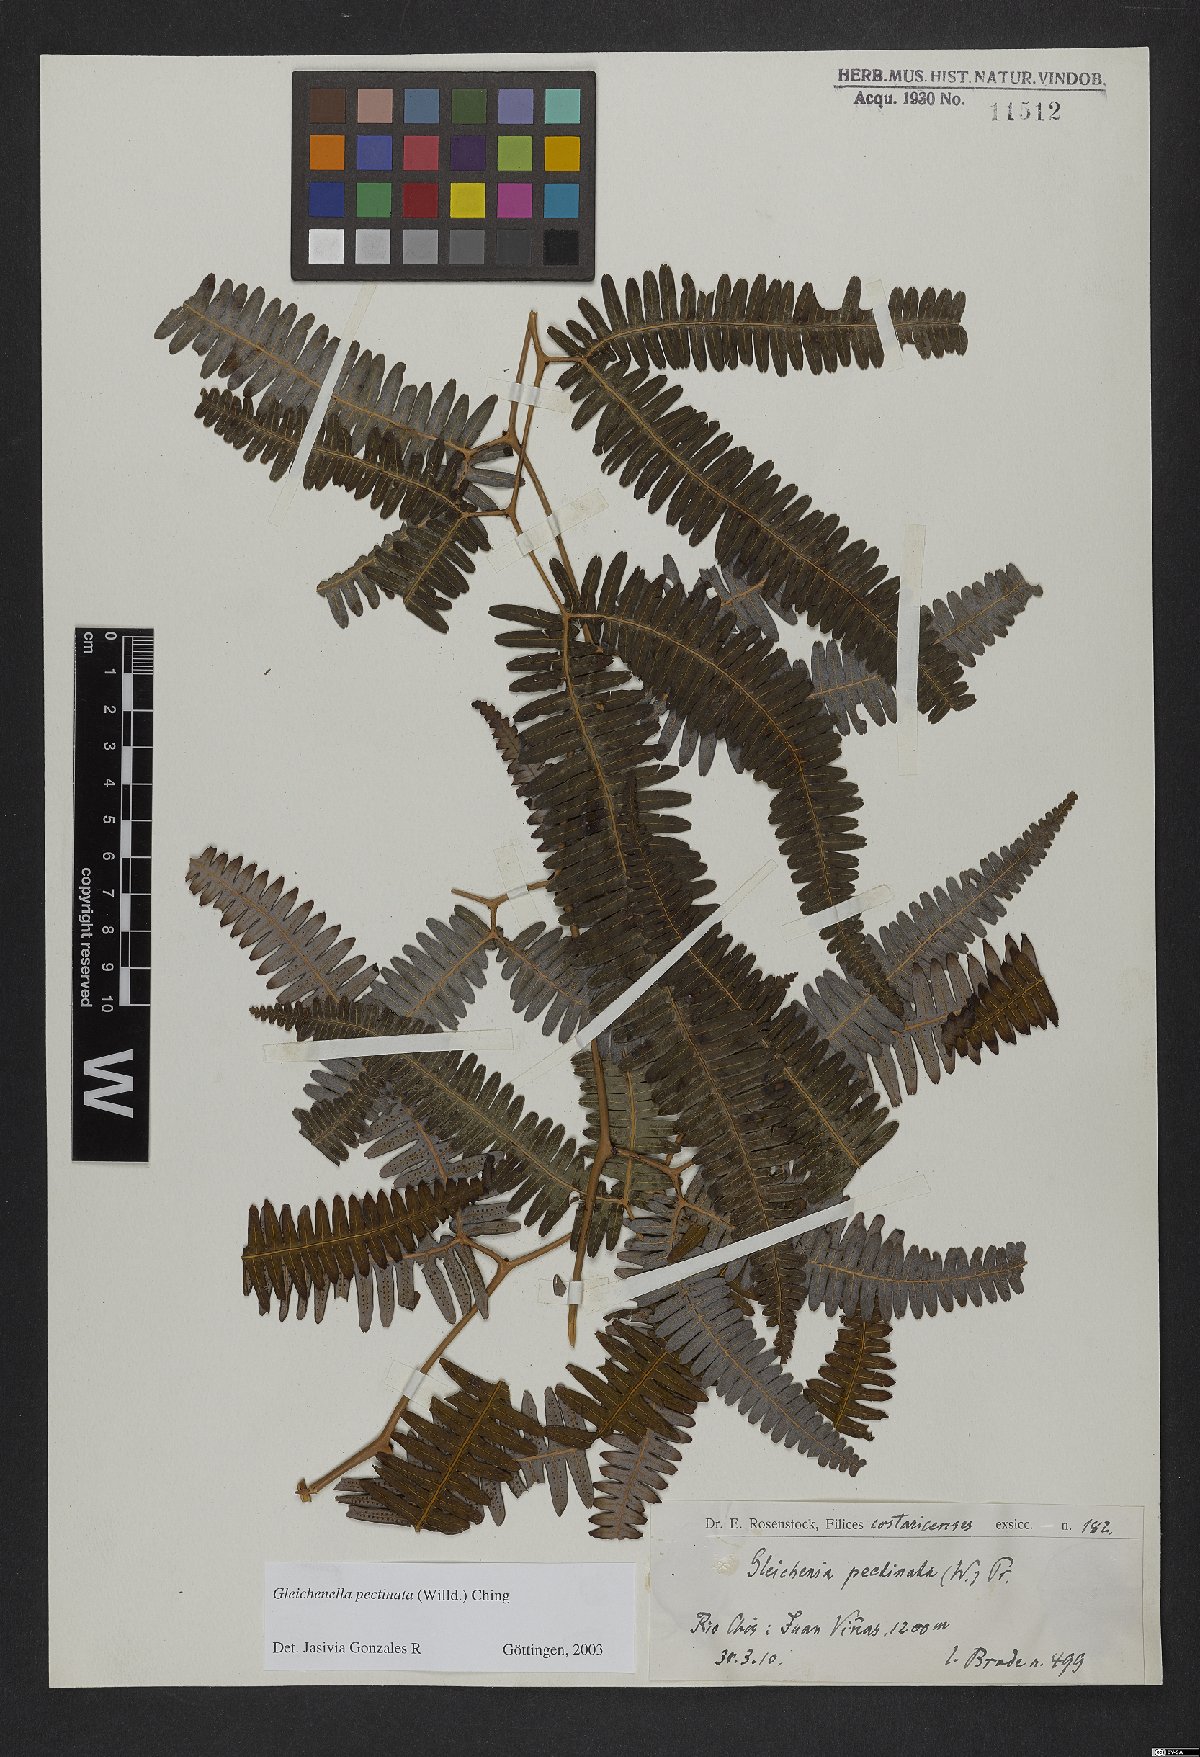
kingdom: Plantae
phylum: Tracheophyta
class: Polypodiopsida
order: Gleicheniales
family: Gleicheniaceae
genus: Gleichenella
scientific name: Gleichenella pectinata
